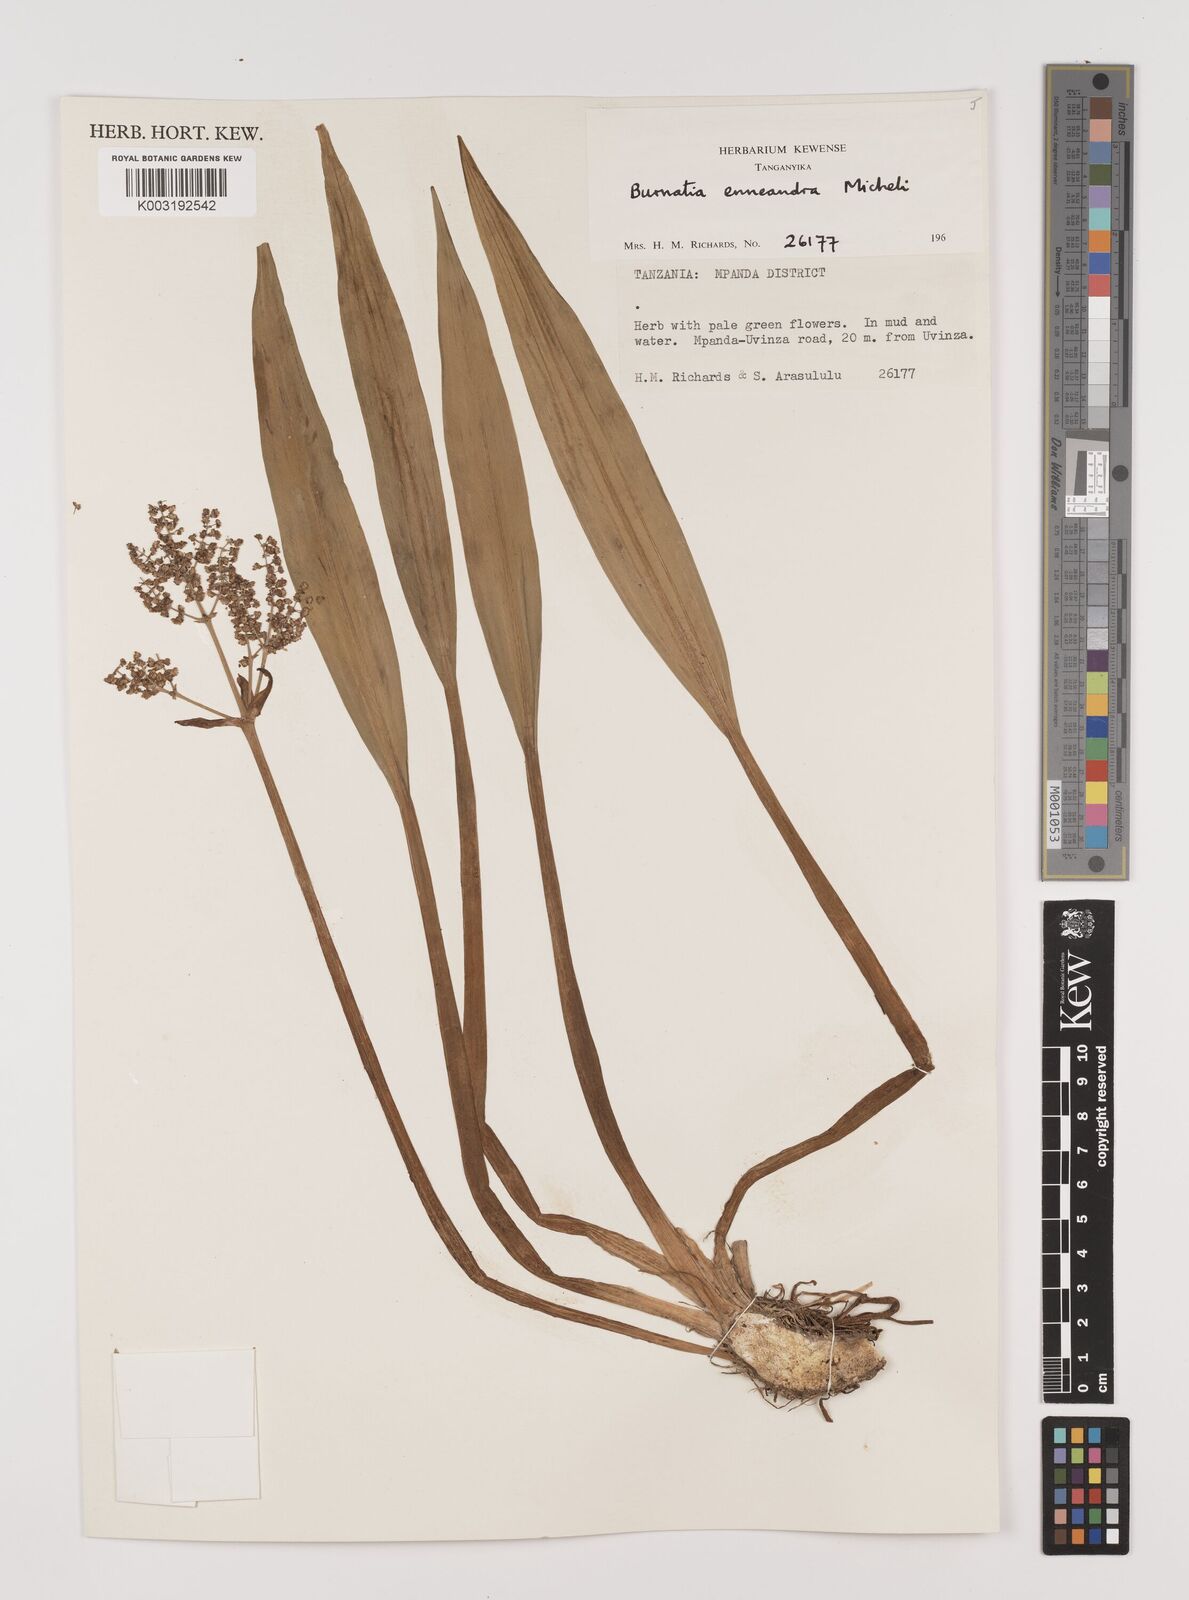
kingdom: Plantae
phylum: Tracheophyta
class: Liliopsida
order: Alismatales
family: Alismataceae
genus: Burnatia
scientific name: Burnatia enneandra
